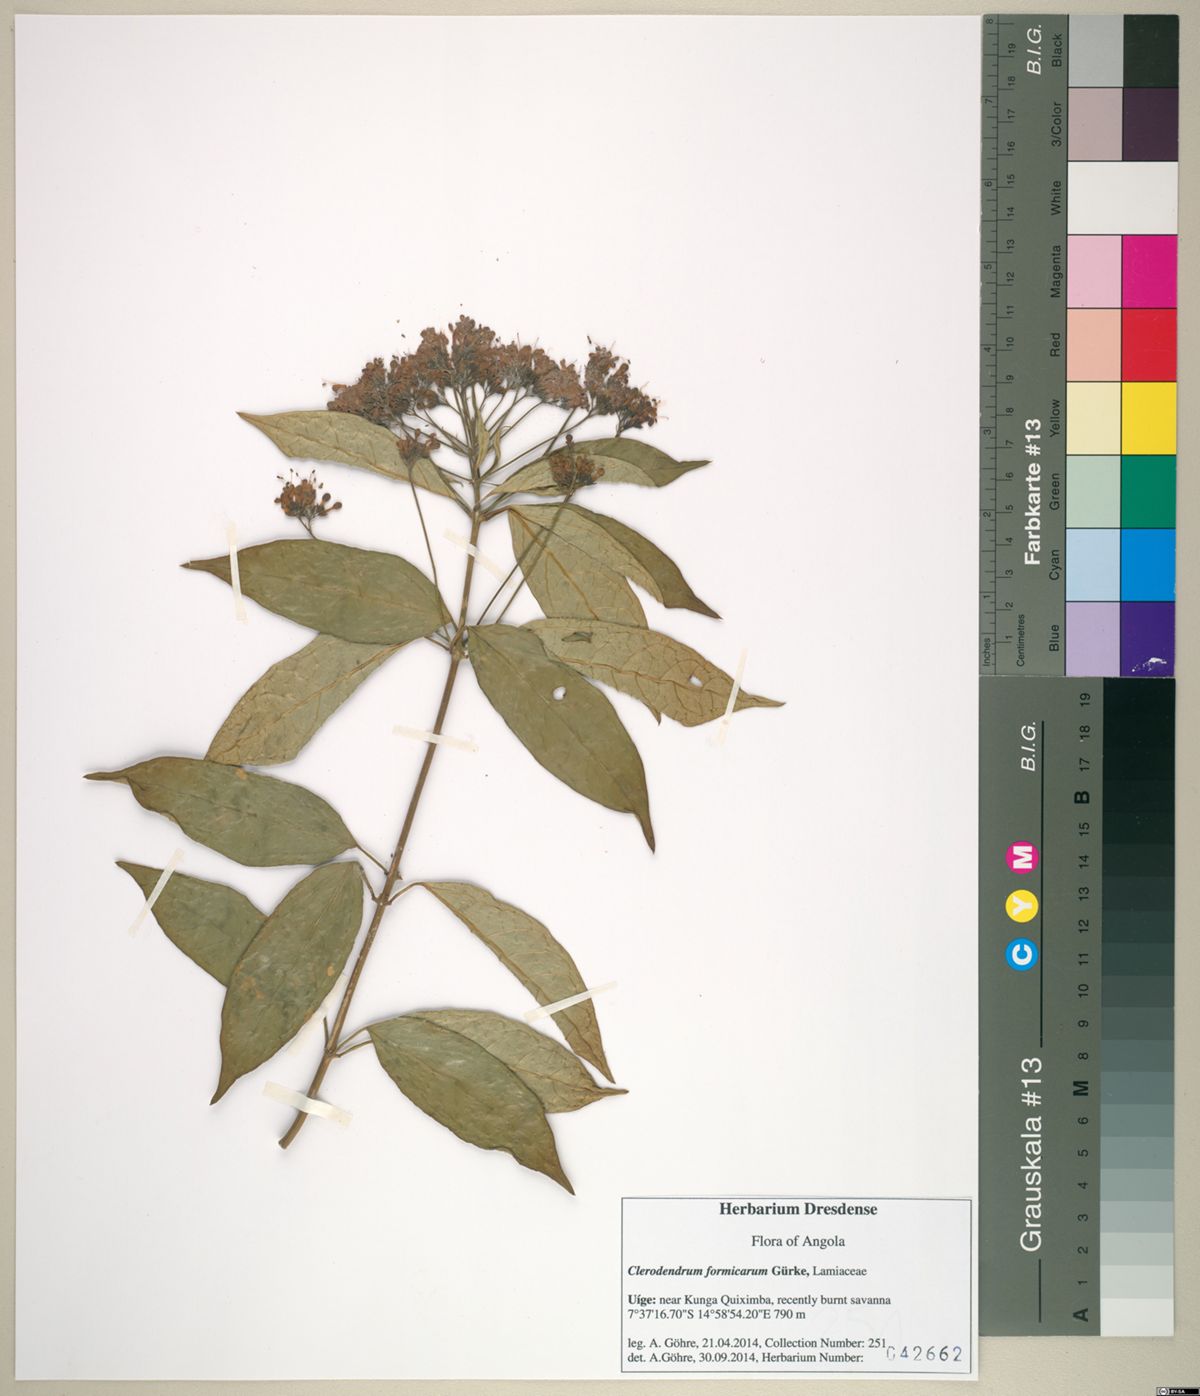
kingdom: Plantae
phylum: Tracheophyta
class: Magnoliopsida
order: Lamiales
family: Lamiaceae
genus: Clerodendrum
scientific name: Clerodendrum formicarum
